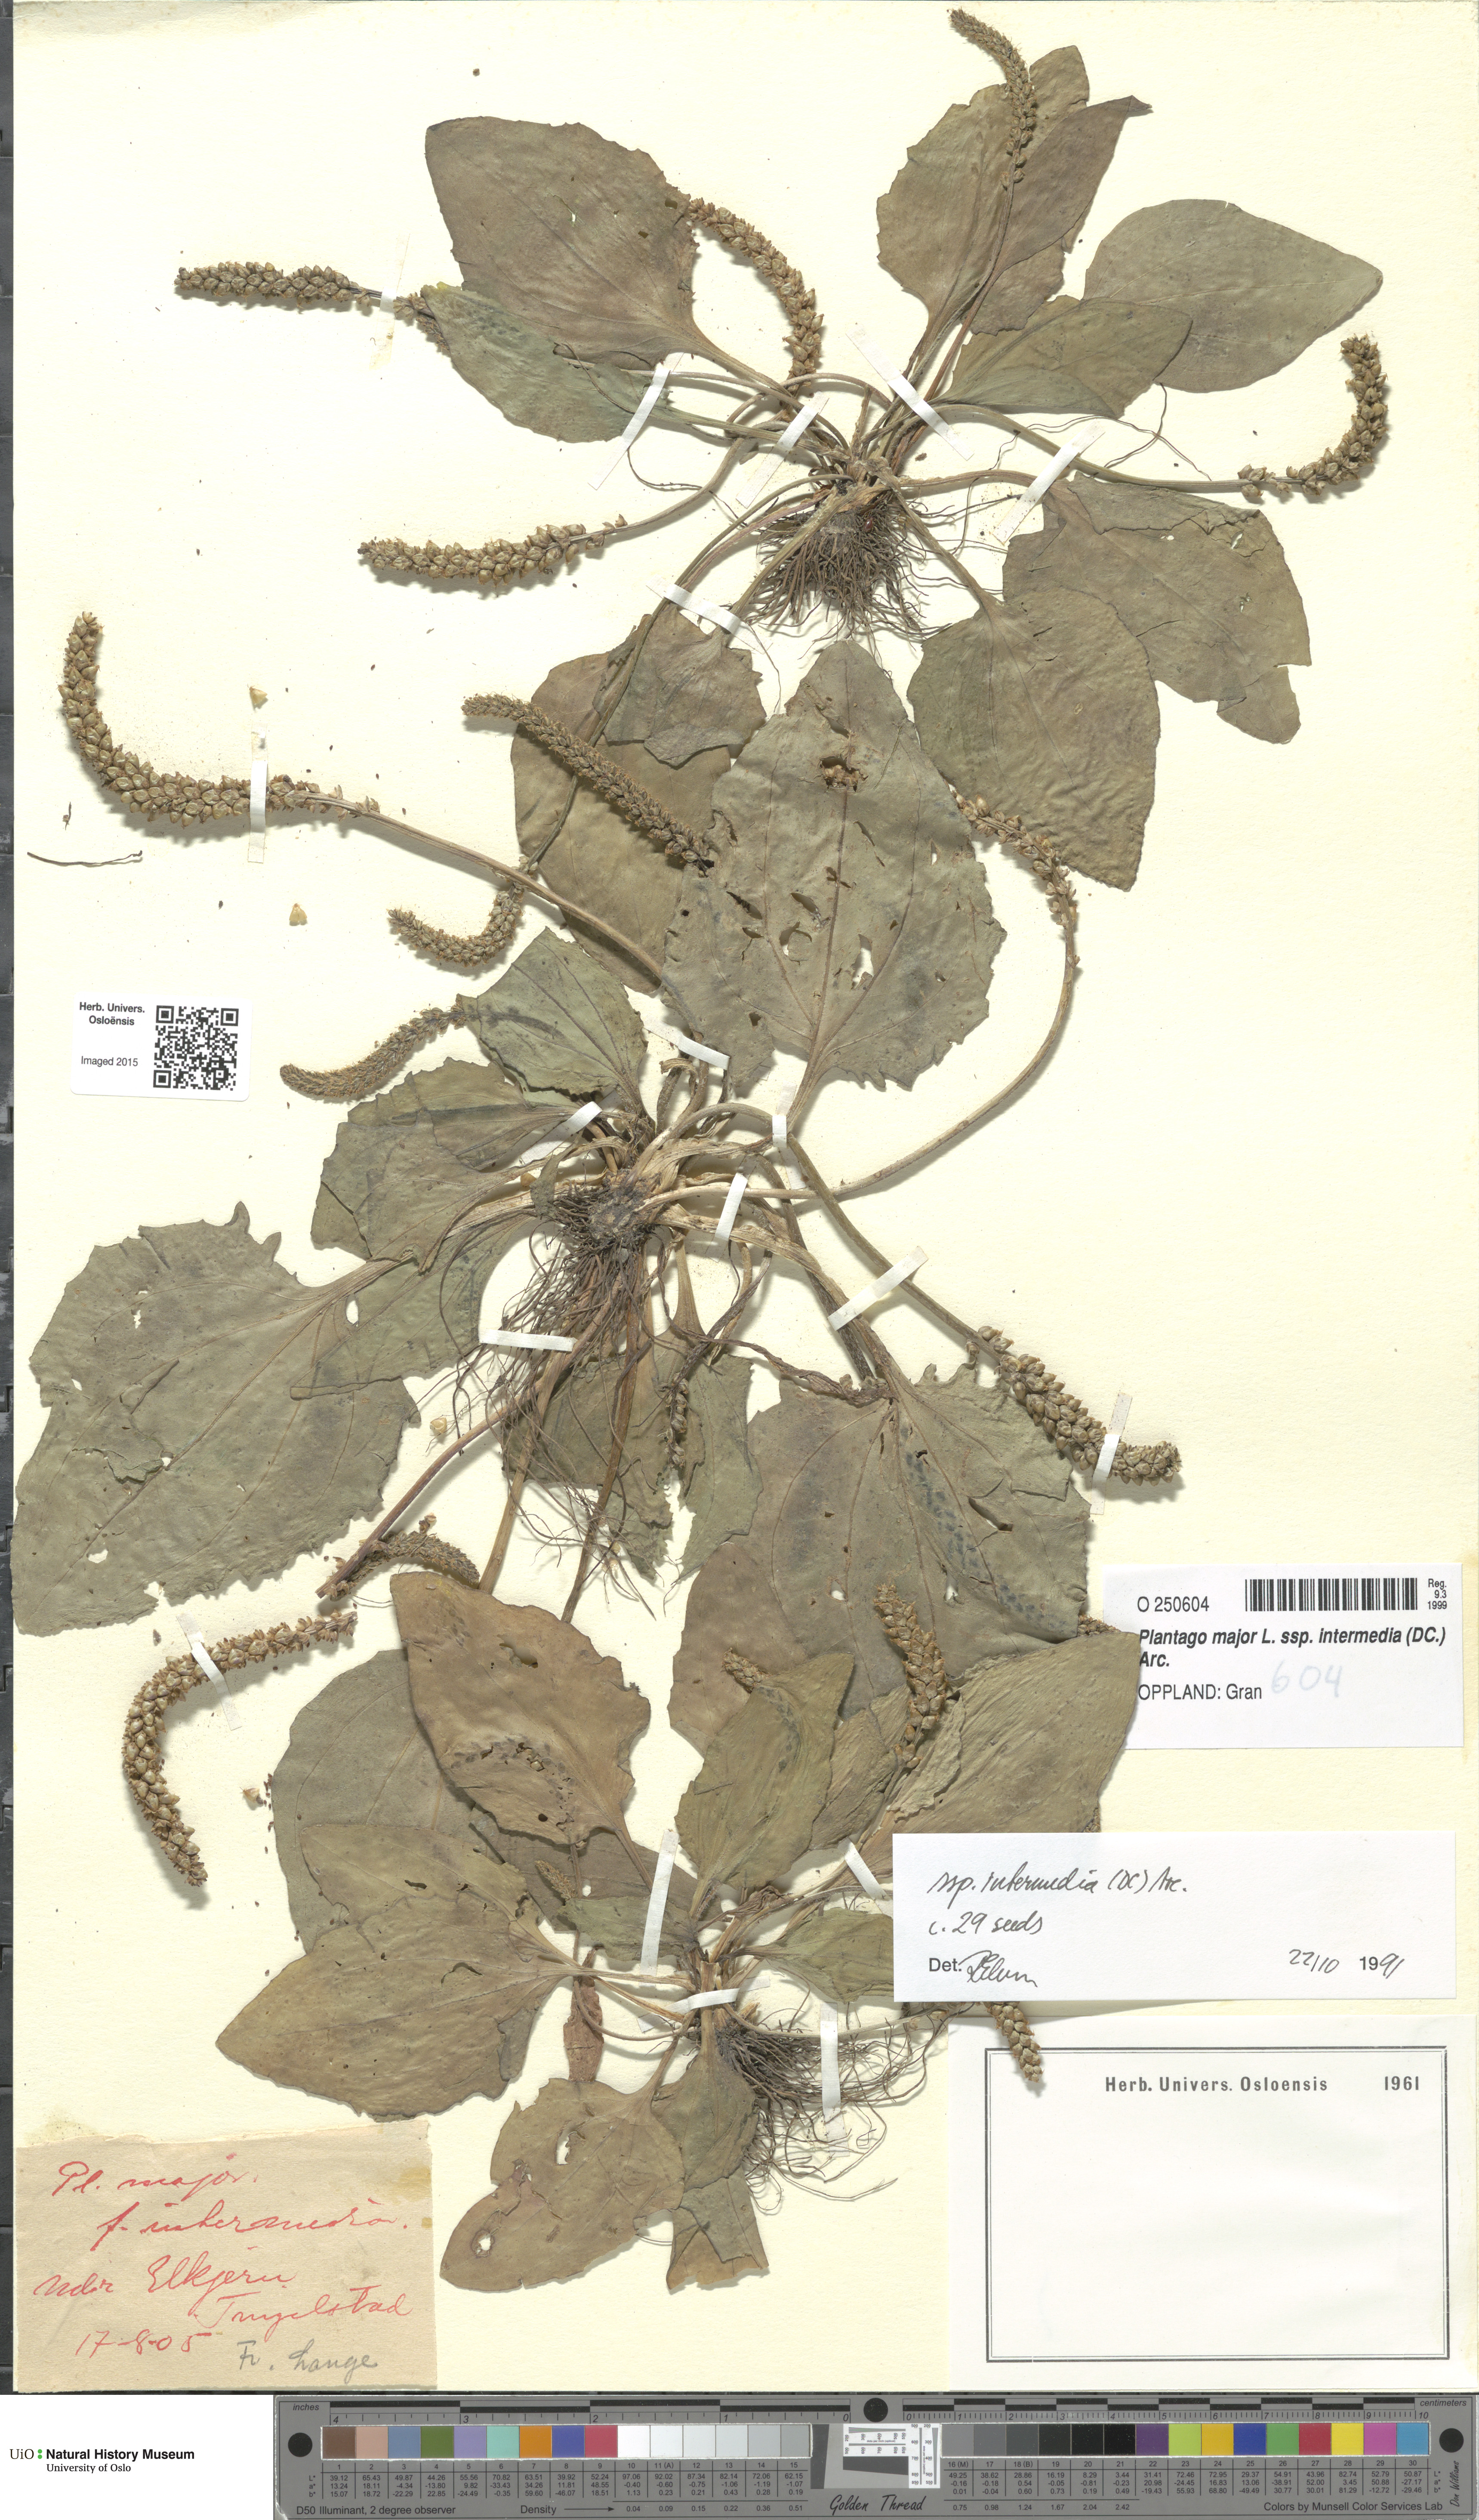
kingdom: Plantae
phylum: Tracheophyta
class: Magnoliopsida
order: Lamiales
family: Plantaginaceae
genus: Plantago
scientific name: Plantago uliginosa
